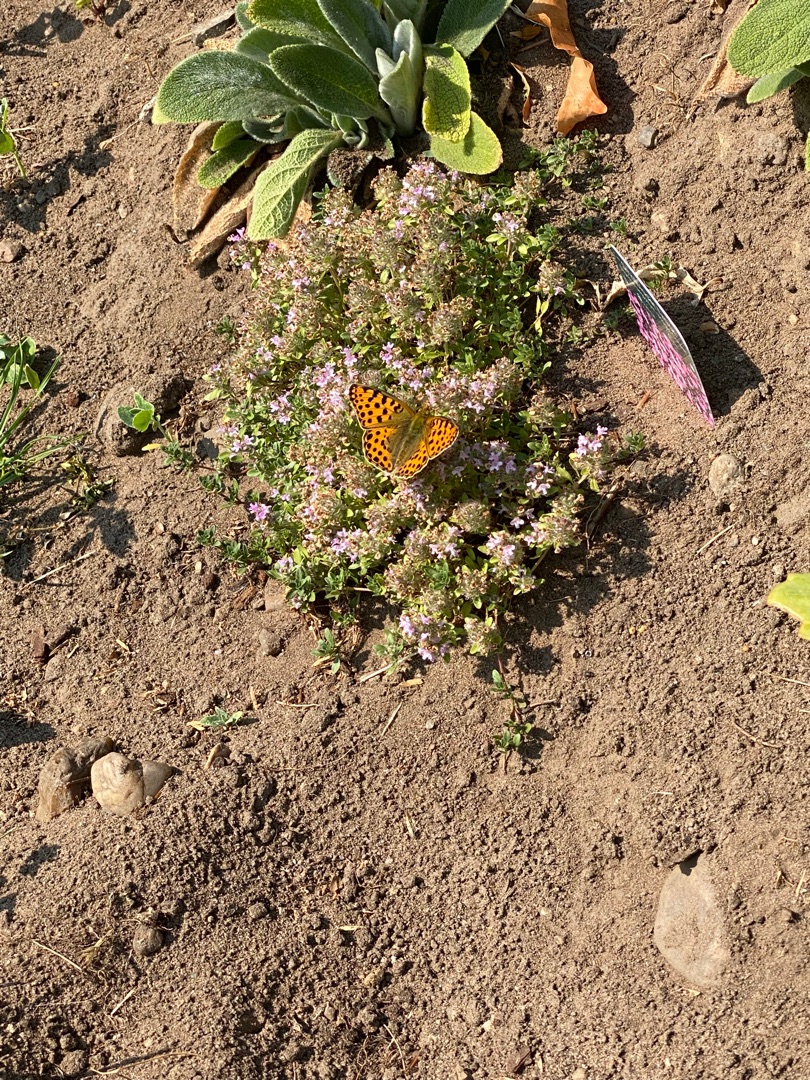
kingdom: Animalia
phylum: Arthropoda
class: Insecta
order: Lepidoptera
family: Nymphalidae
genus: Issoria
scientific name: Issoria lathonia
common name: Storplettet perlemorsommerfugl
